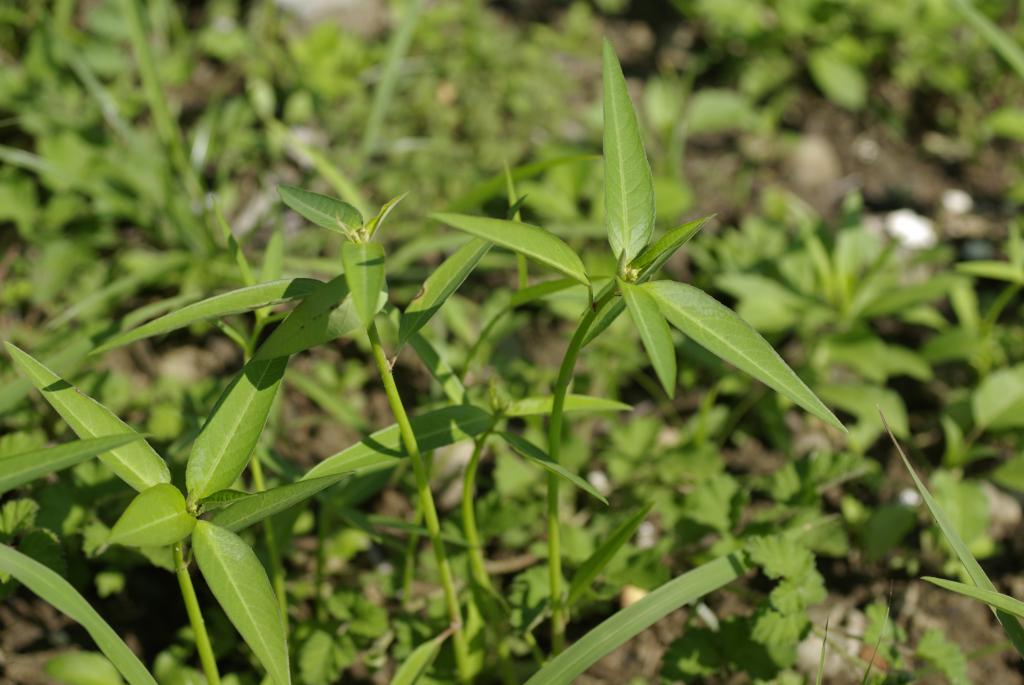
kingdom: Plantae
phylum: Tracheophyta
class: Magnoliopsida
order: Malpighiales
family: Euphorbiaceae
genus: Euphorbia
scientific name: Euphorbia heterophylla
